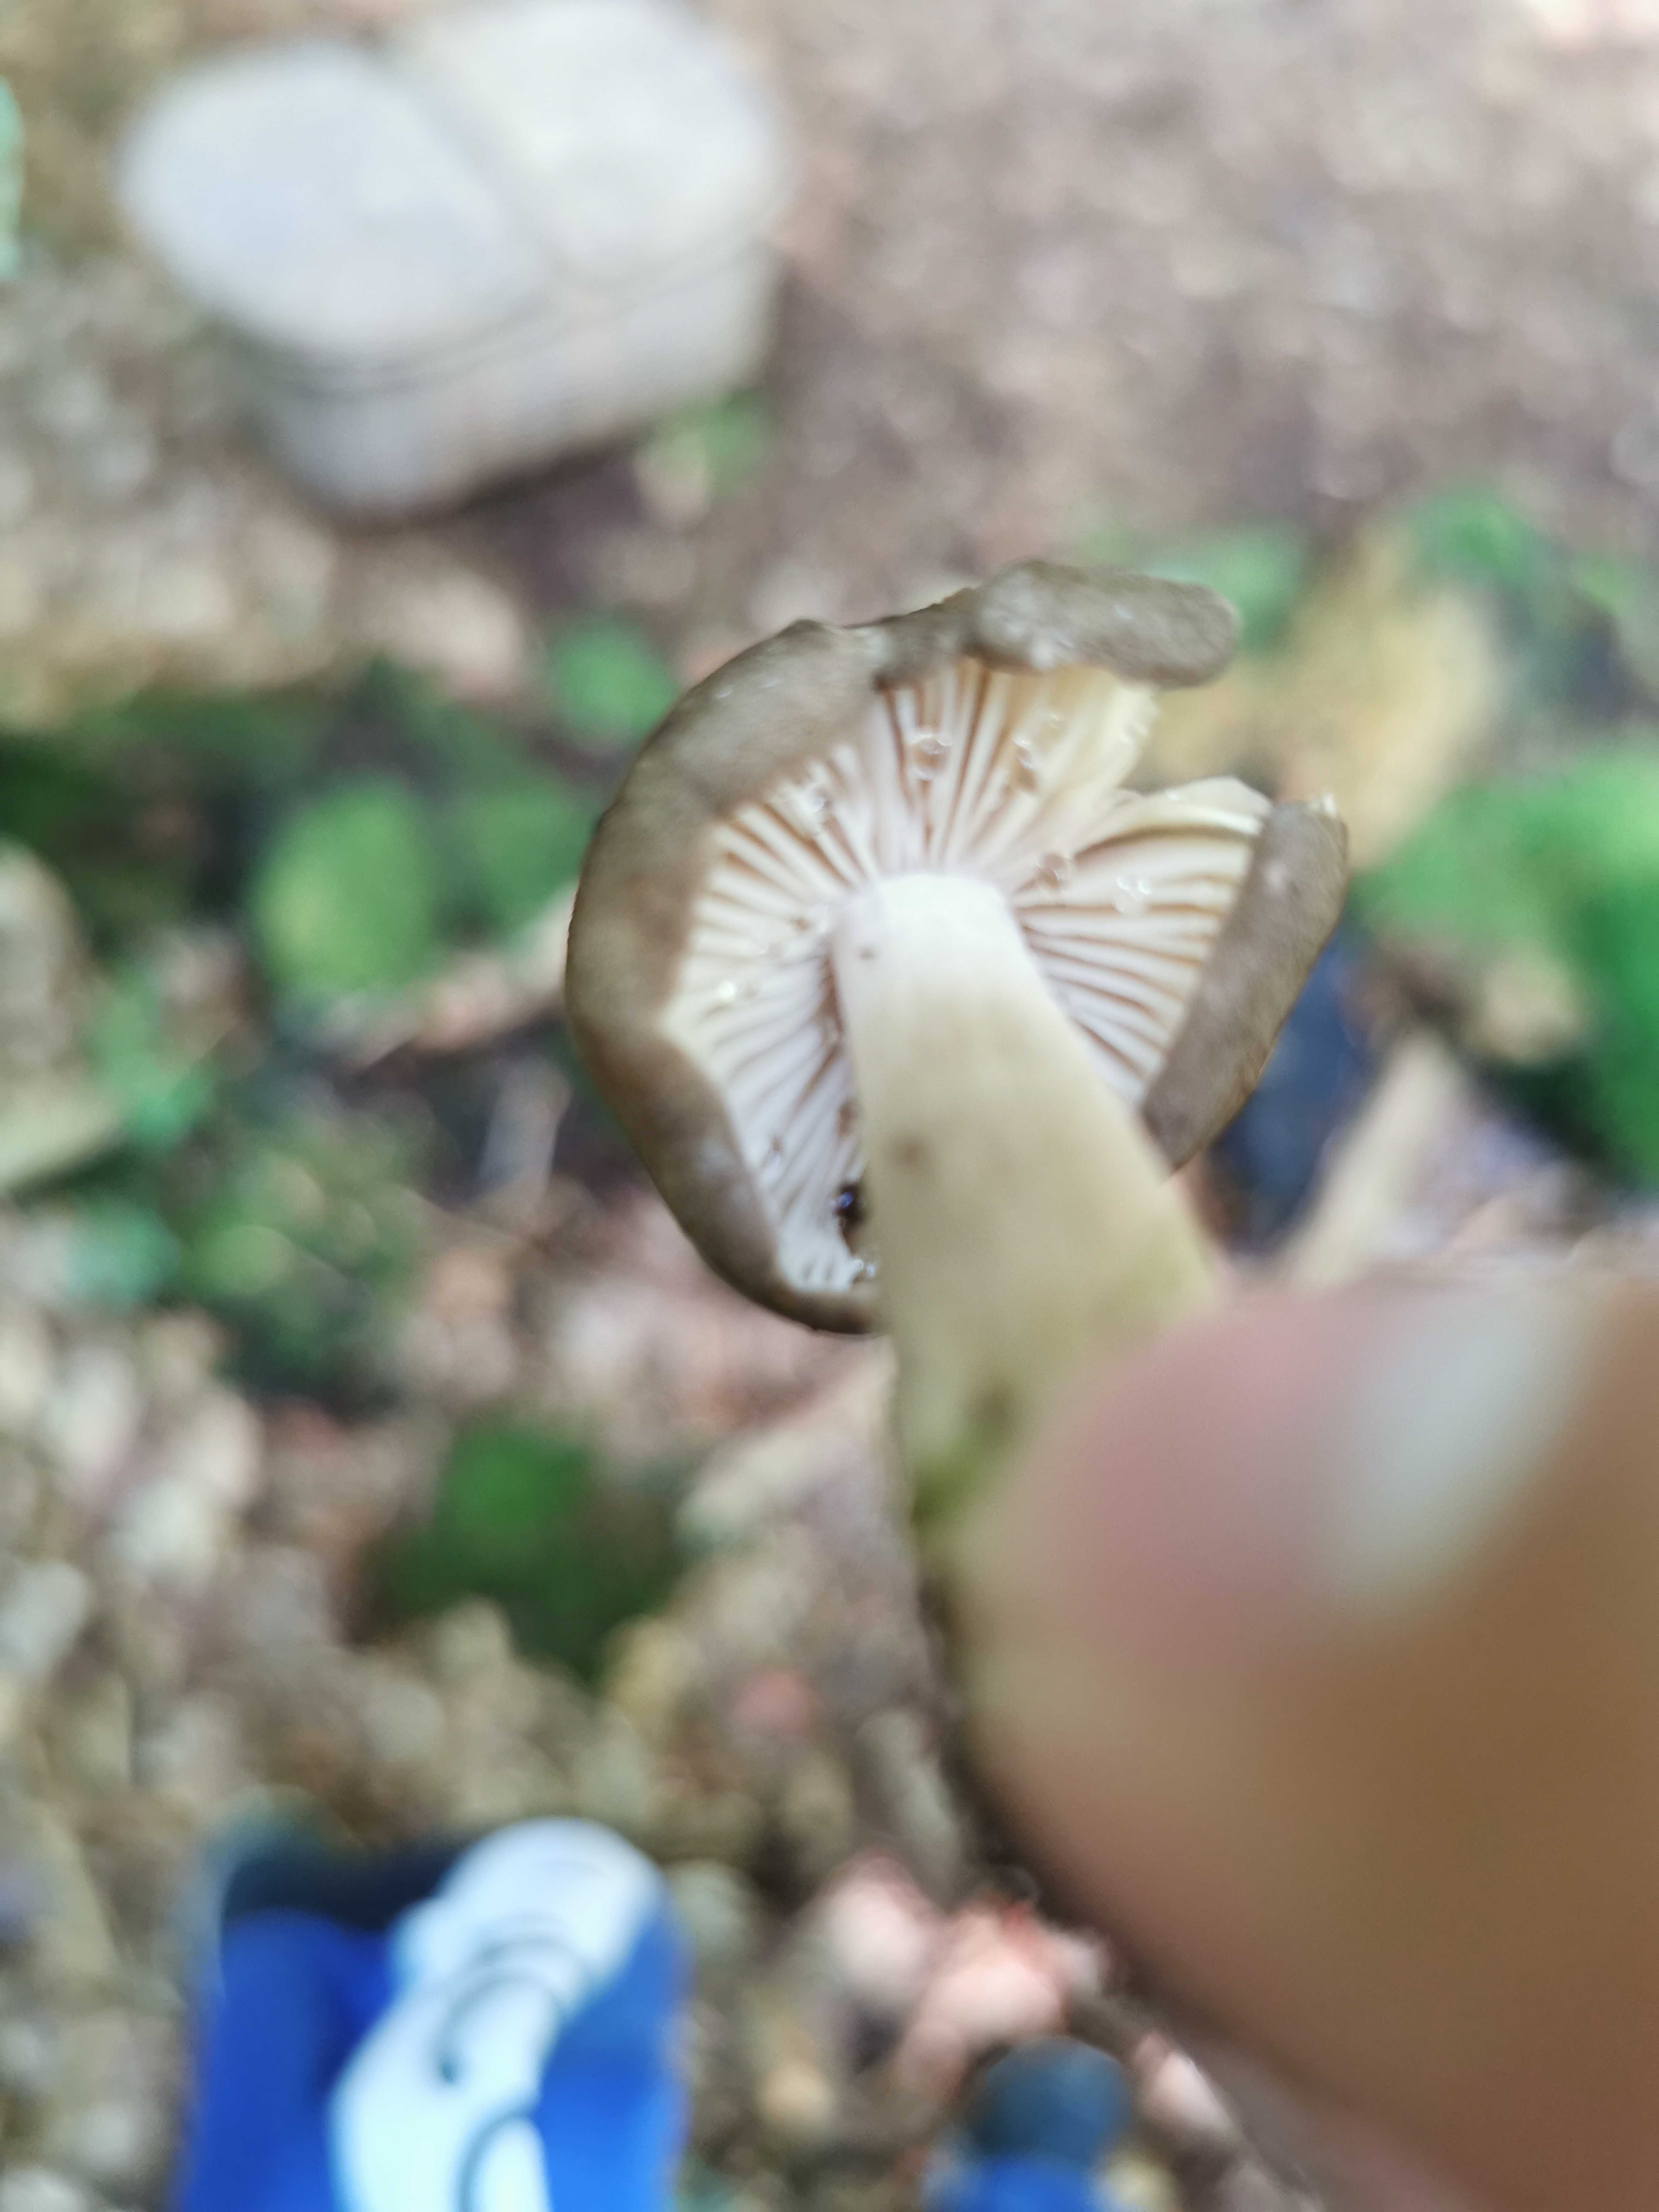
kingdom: Fungi
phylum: Basidiomycota
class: Agaricomycetes
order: Agaricales
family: Tricholomataceae
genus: Megacollybia
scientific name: Megacollybia platyphylla
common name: bredbladet væbnerhat
